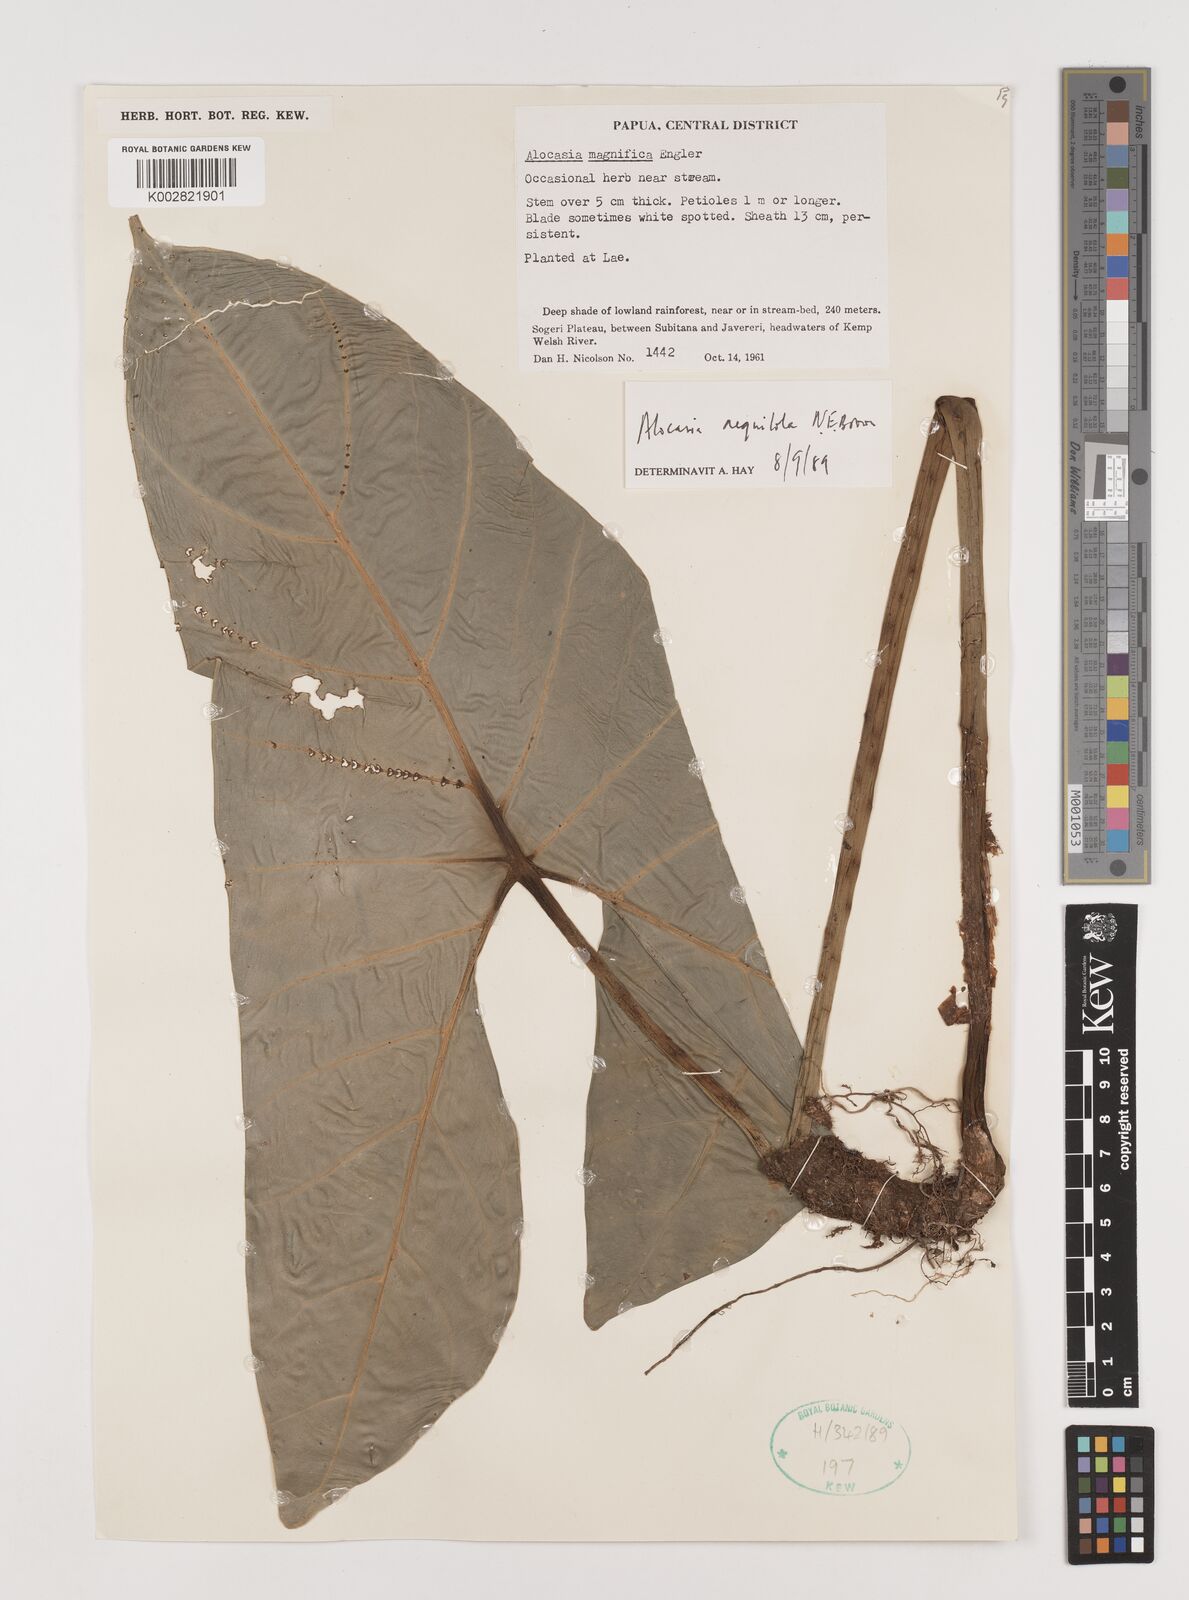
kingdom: Plantae
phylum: Tracheophyta
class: Liliopsida
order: Alismatales
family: Araceae
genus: Alocasia
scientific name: Alocasia aequiloba
